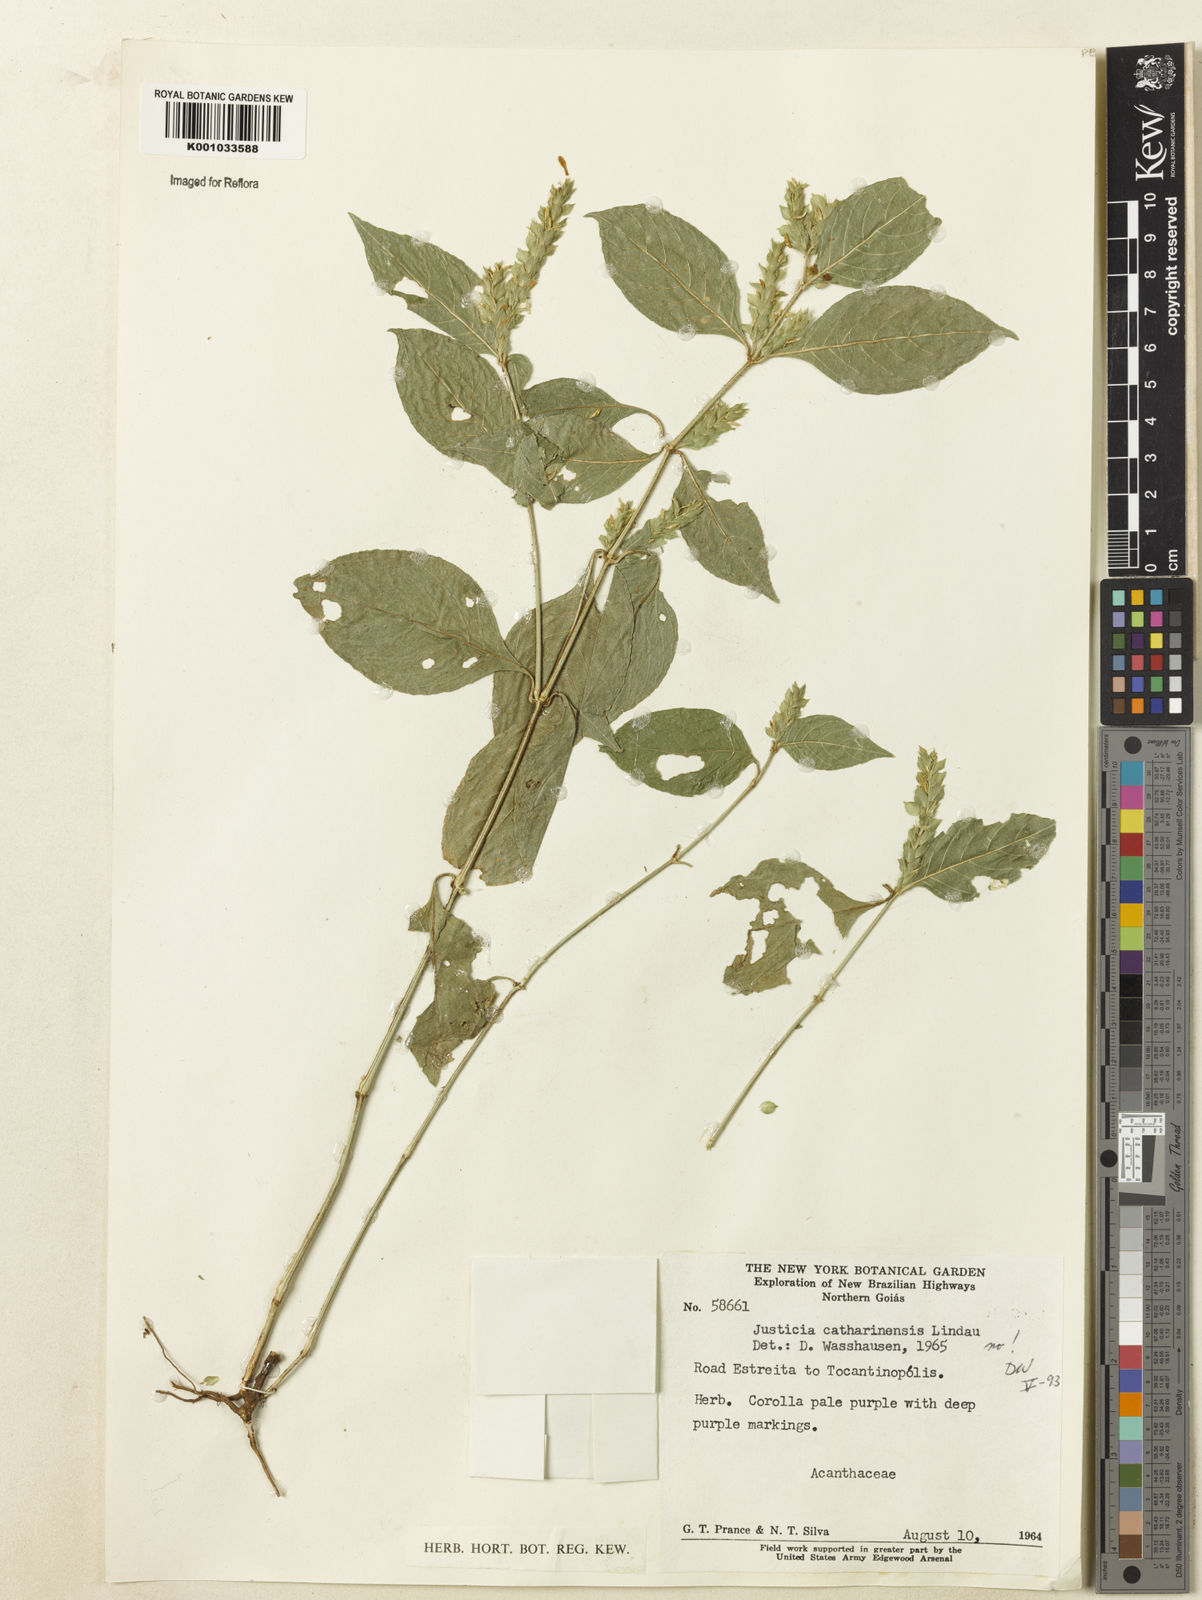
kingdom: Plantae
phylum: Tracheophyta
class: Magnoliopsida
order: Lamiales
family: Acanthaceae
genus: Justicia
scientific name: Justicia
